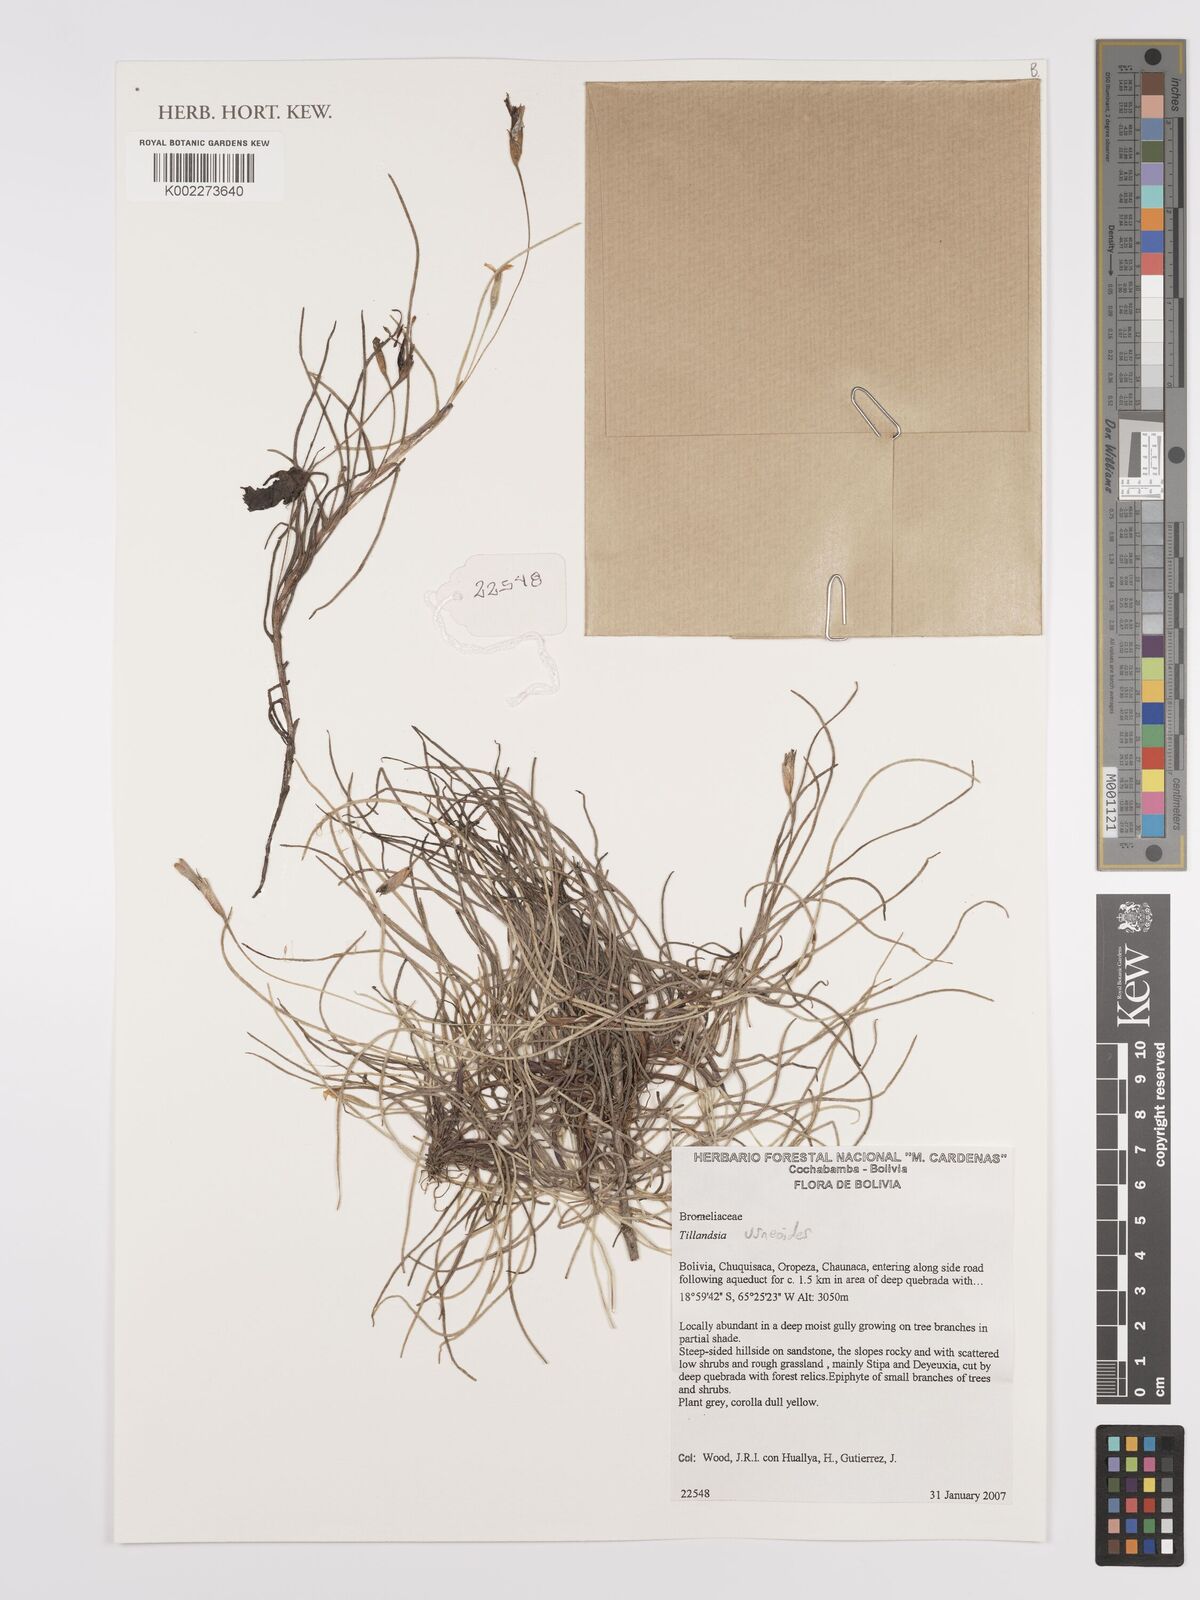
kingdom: Plantae
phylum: Tracheophyta
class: Liliopsida
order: Poales
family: Bromeliaceae
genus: Tillandsia
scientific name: Tillandsia usneoides
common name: Spanish moss
